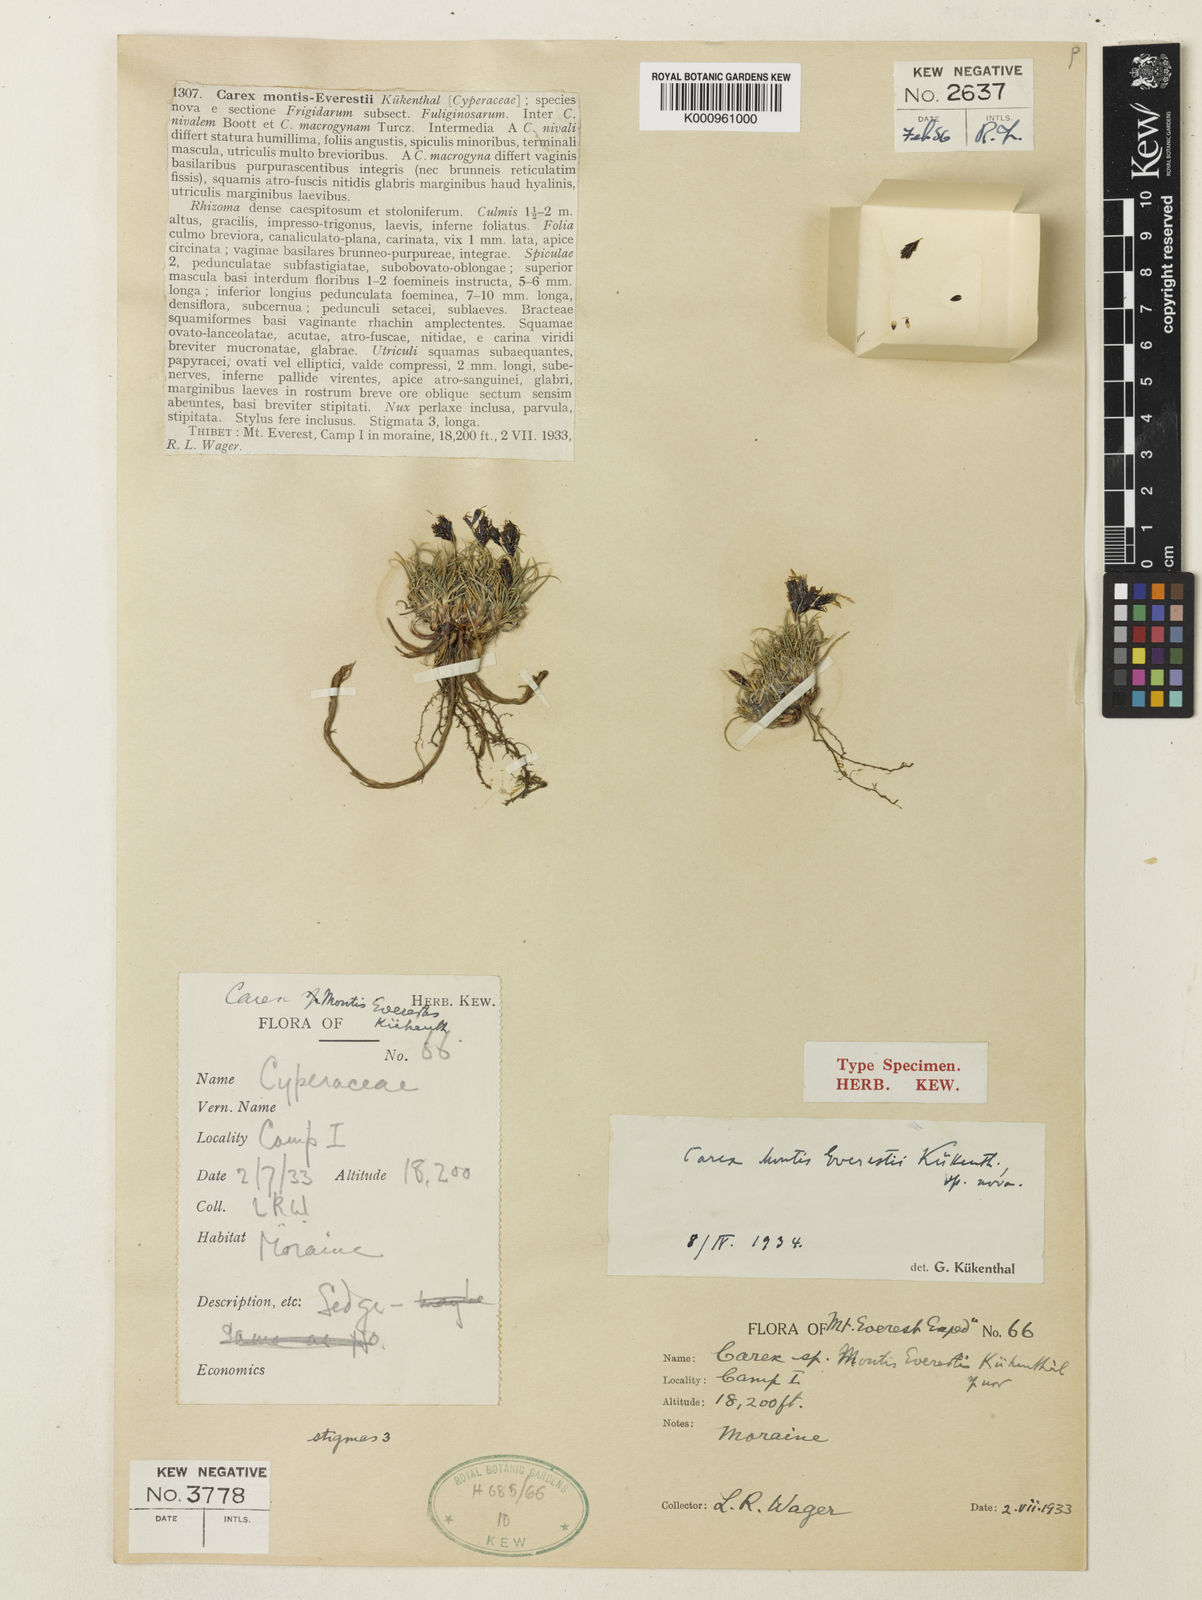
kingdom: Plantae
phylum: Tracheophyta
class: Liliopsida
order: Poales
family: Cyperaceae
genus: Carex
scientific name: Carex
